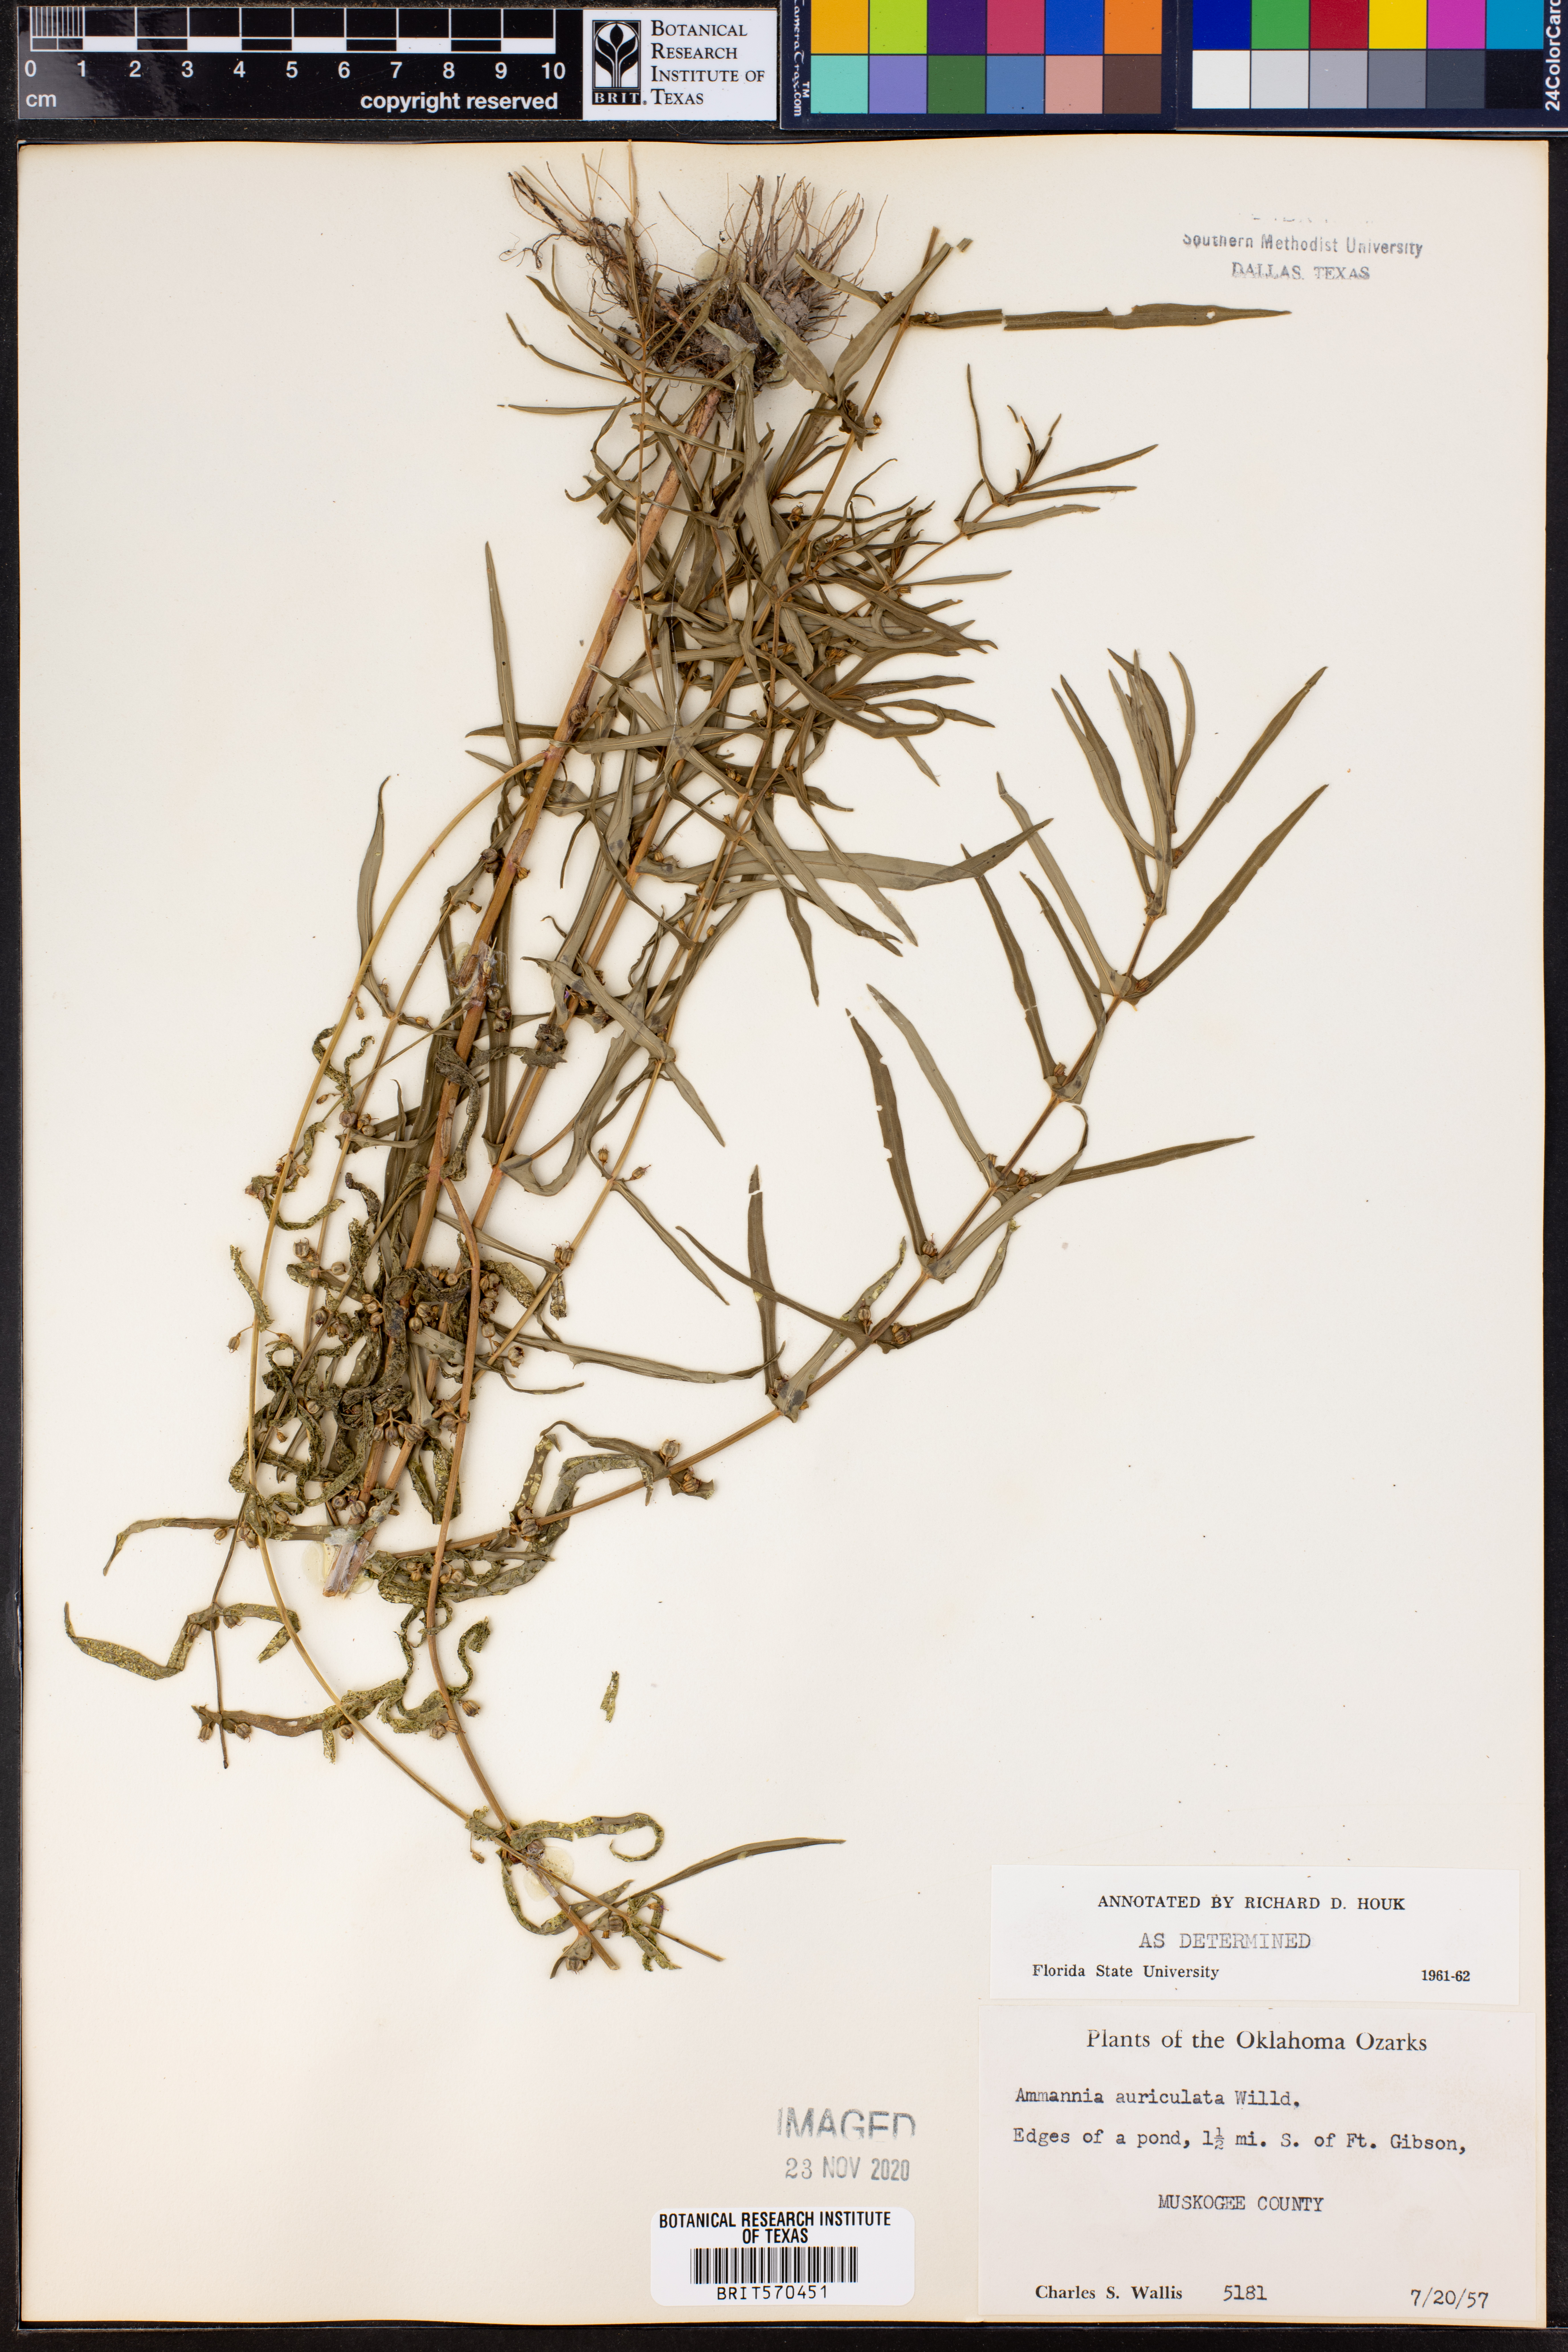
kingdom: Plantae
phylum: Tracheophyta
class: Magnoliopsida
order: Myrtales
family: Lythraceae
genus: Ammannia
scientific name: Ammannia auriculata
